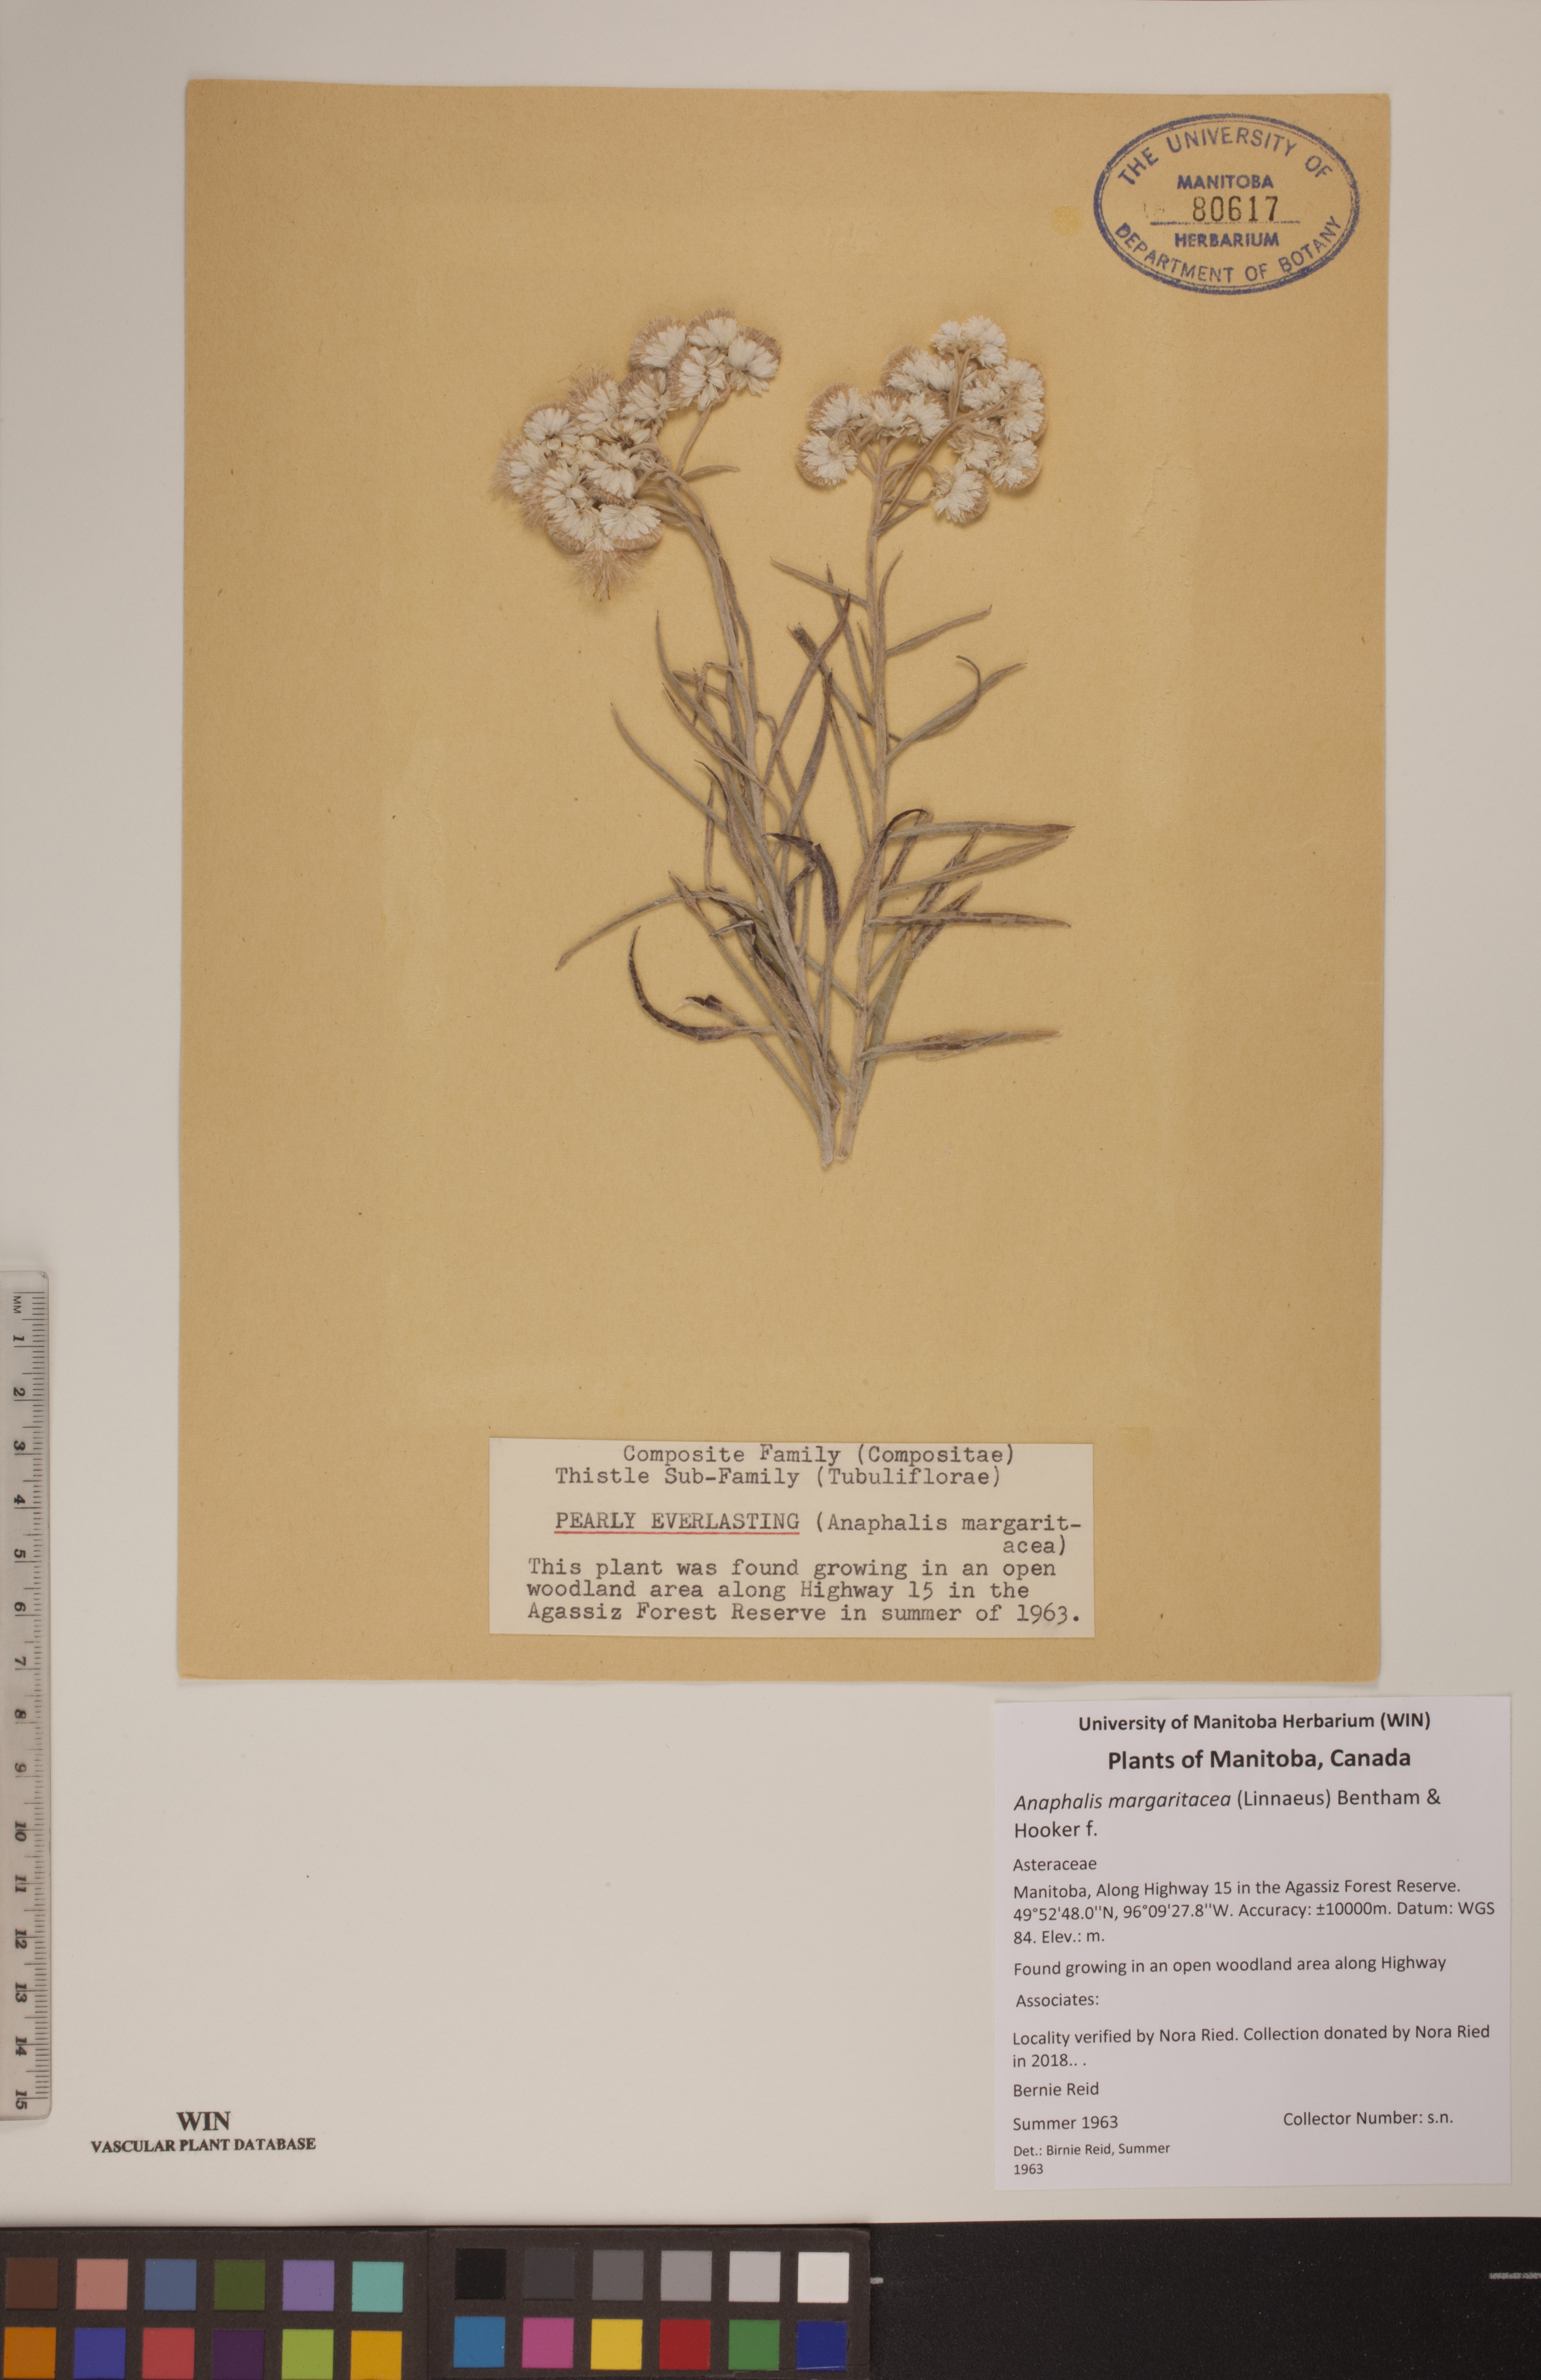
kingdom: Plantae
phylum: Tracheophyta
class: Magnoliopsida
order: Asterales
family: Asteraceae
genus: Anaphalis
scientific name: Anaphalis margaritacea
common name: Pearly everlasting
